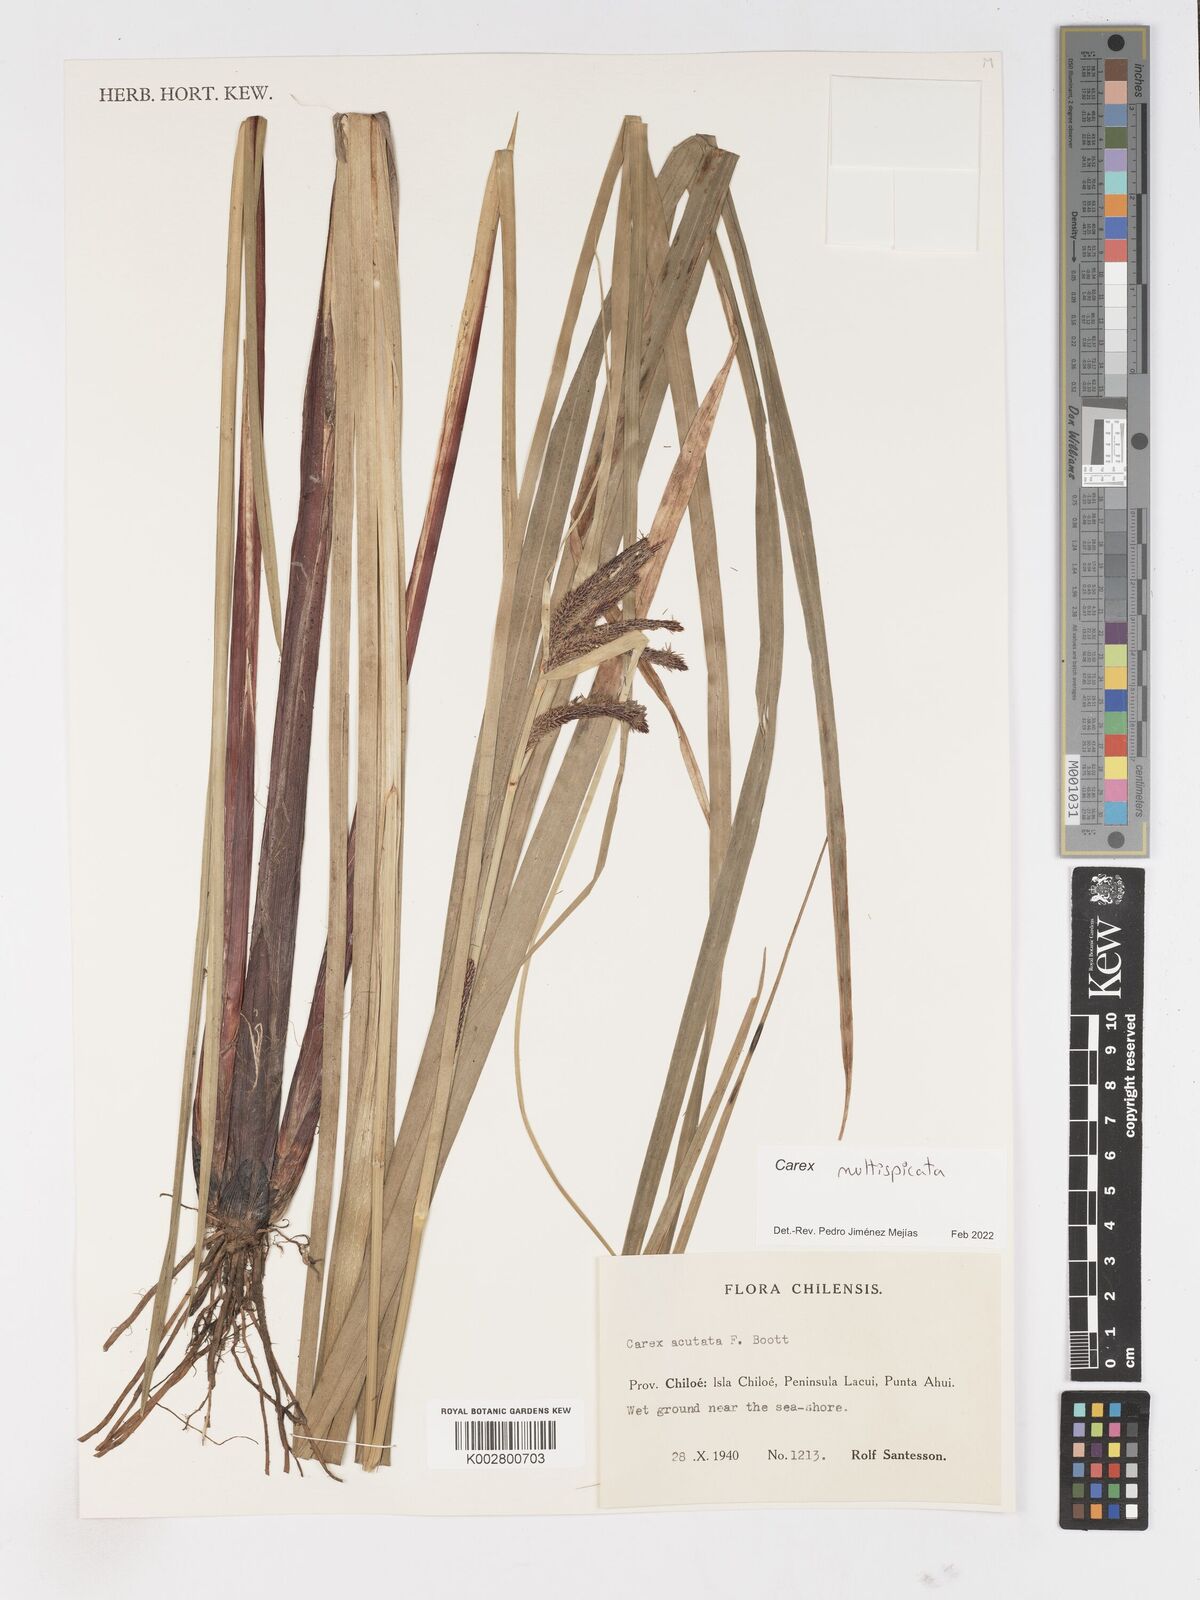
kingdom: Plantae
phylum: Tracheophyta
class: Liliopsida
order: Poales
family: Cyperaceae
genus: Carex
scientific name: Carex multispicata
